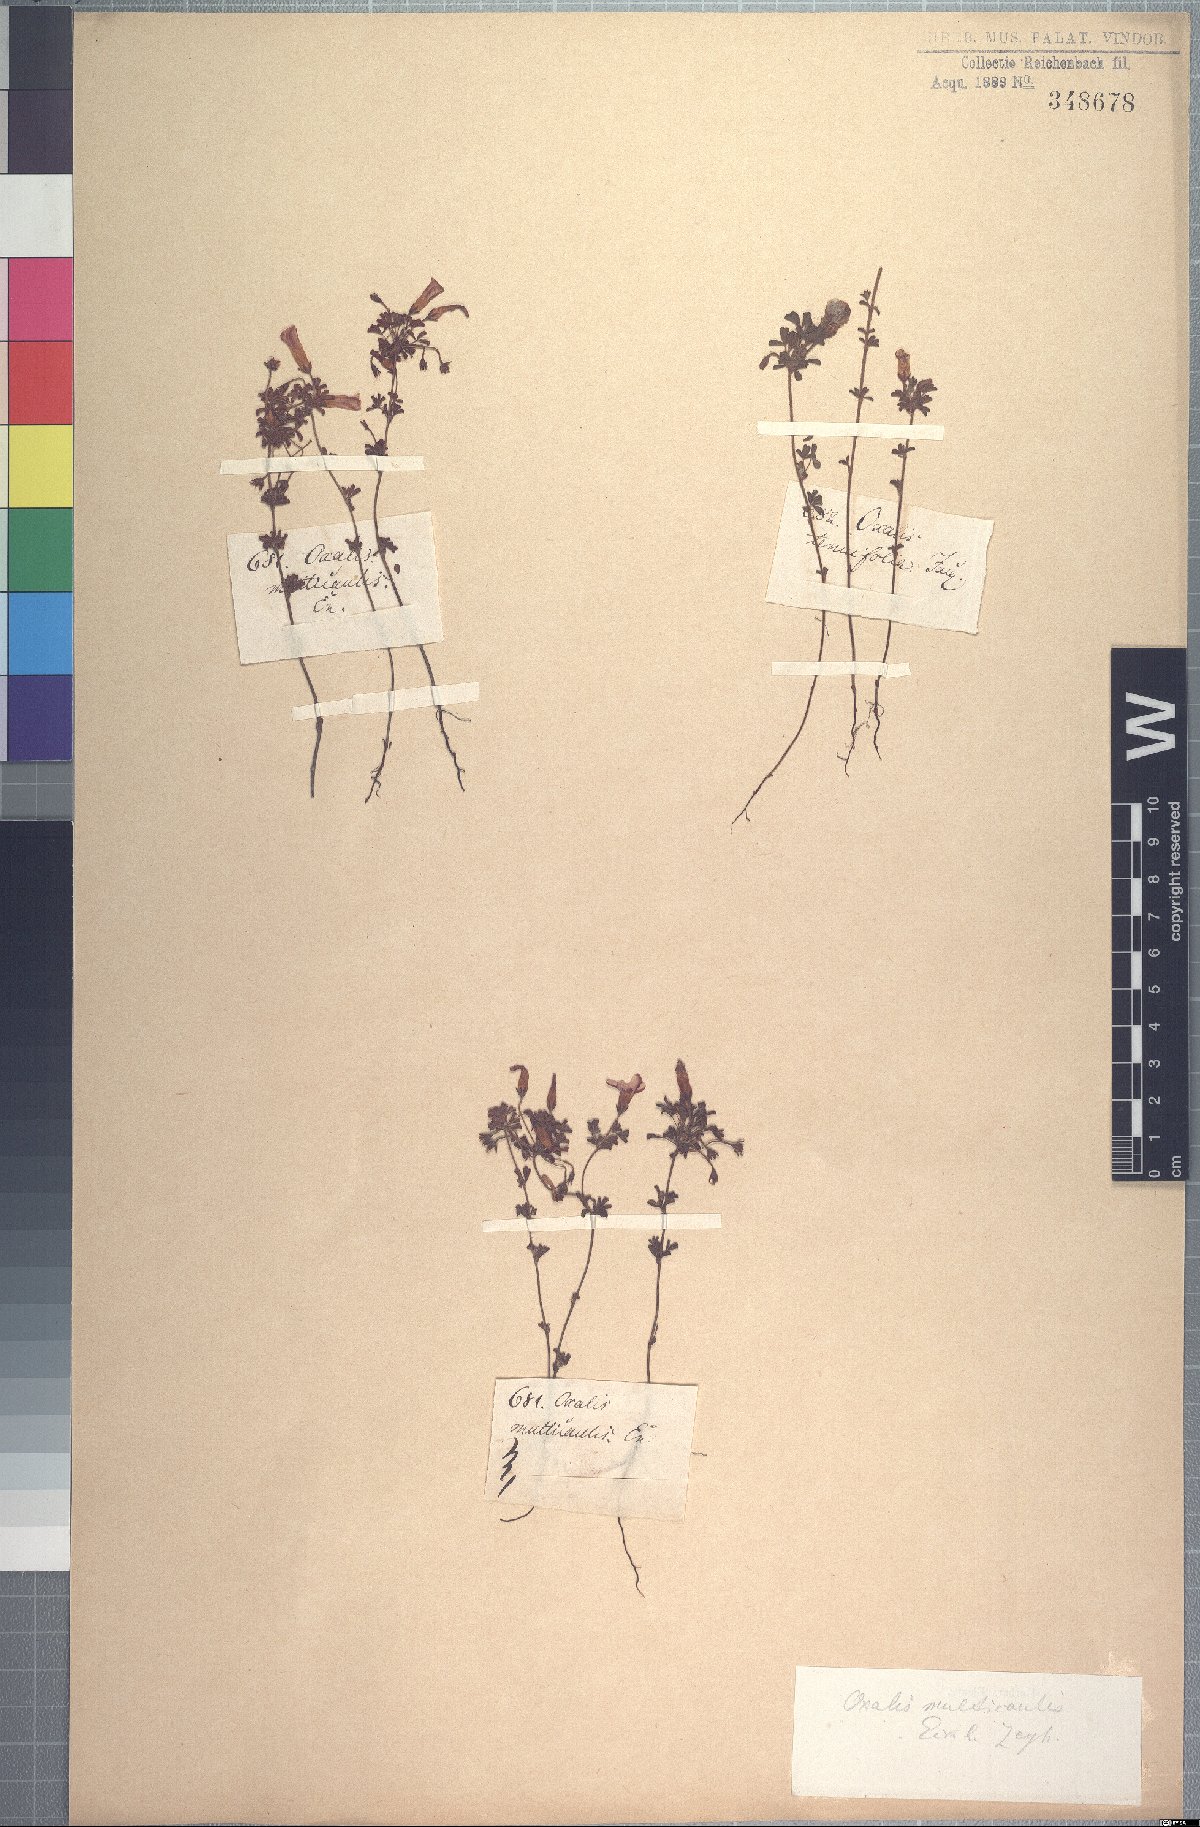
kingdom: Plantae
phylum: Tracheophyta
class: Magnoliopsida
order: Oxalidales
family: Oxalidaceae
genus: Oxalis
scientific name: Oxalis multicaulis
